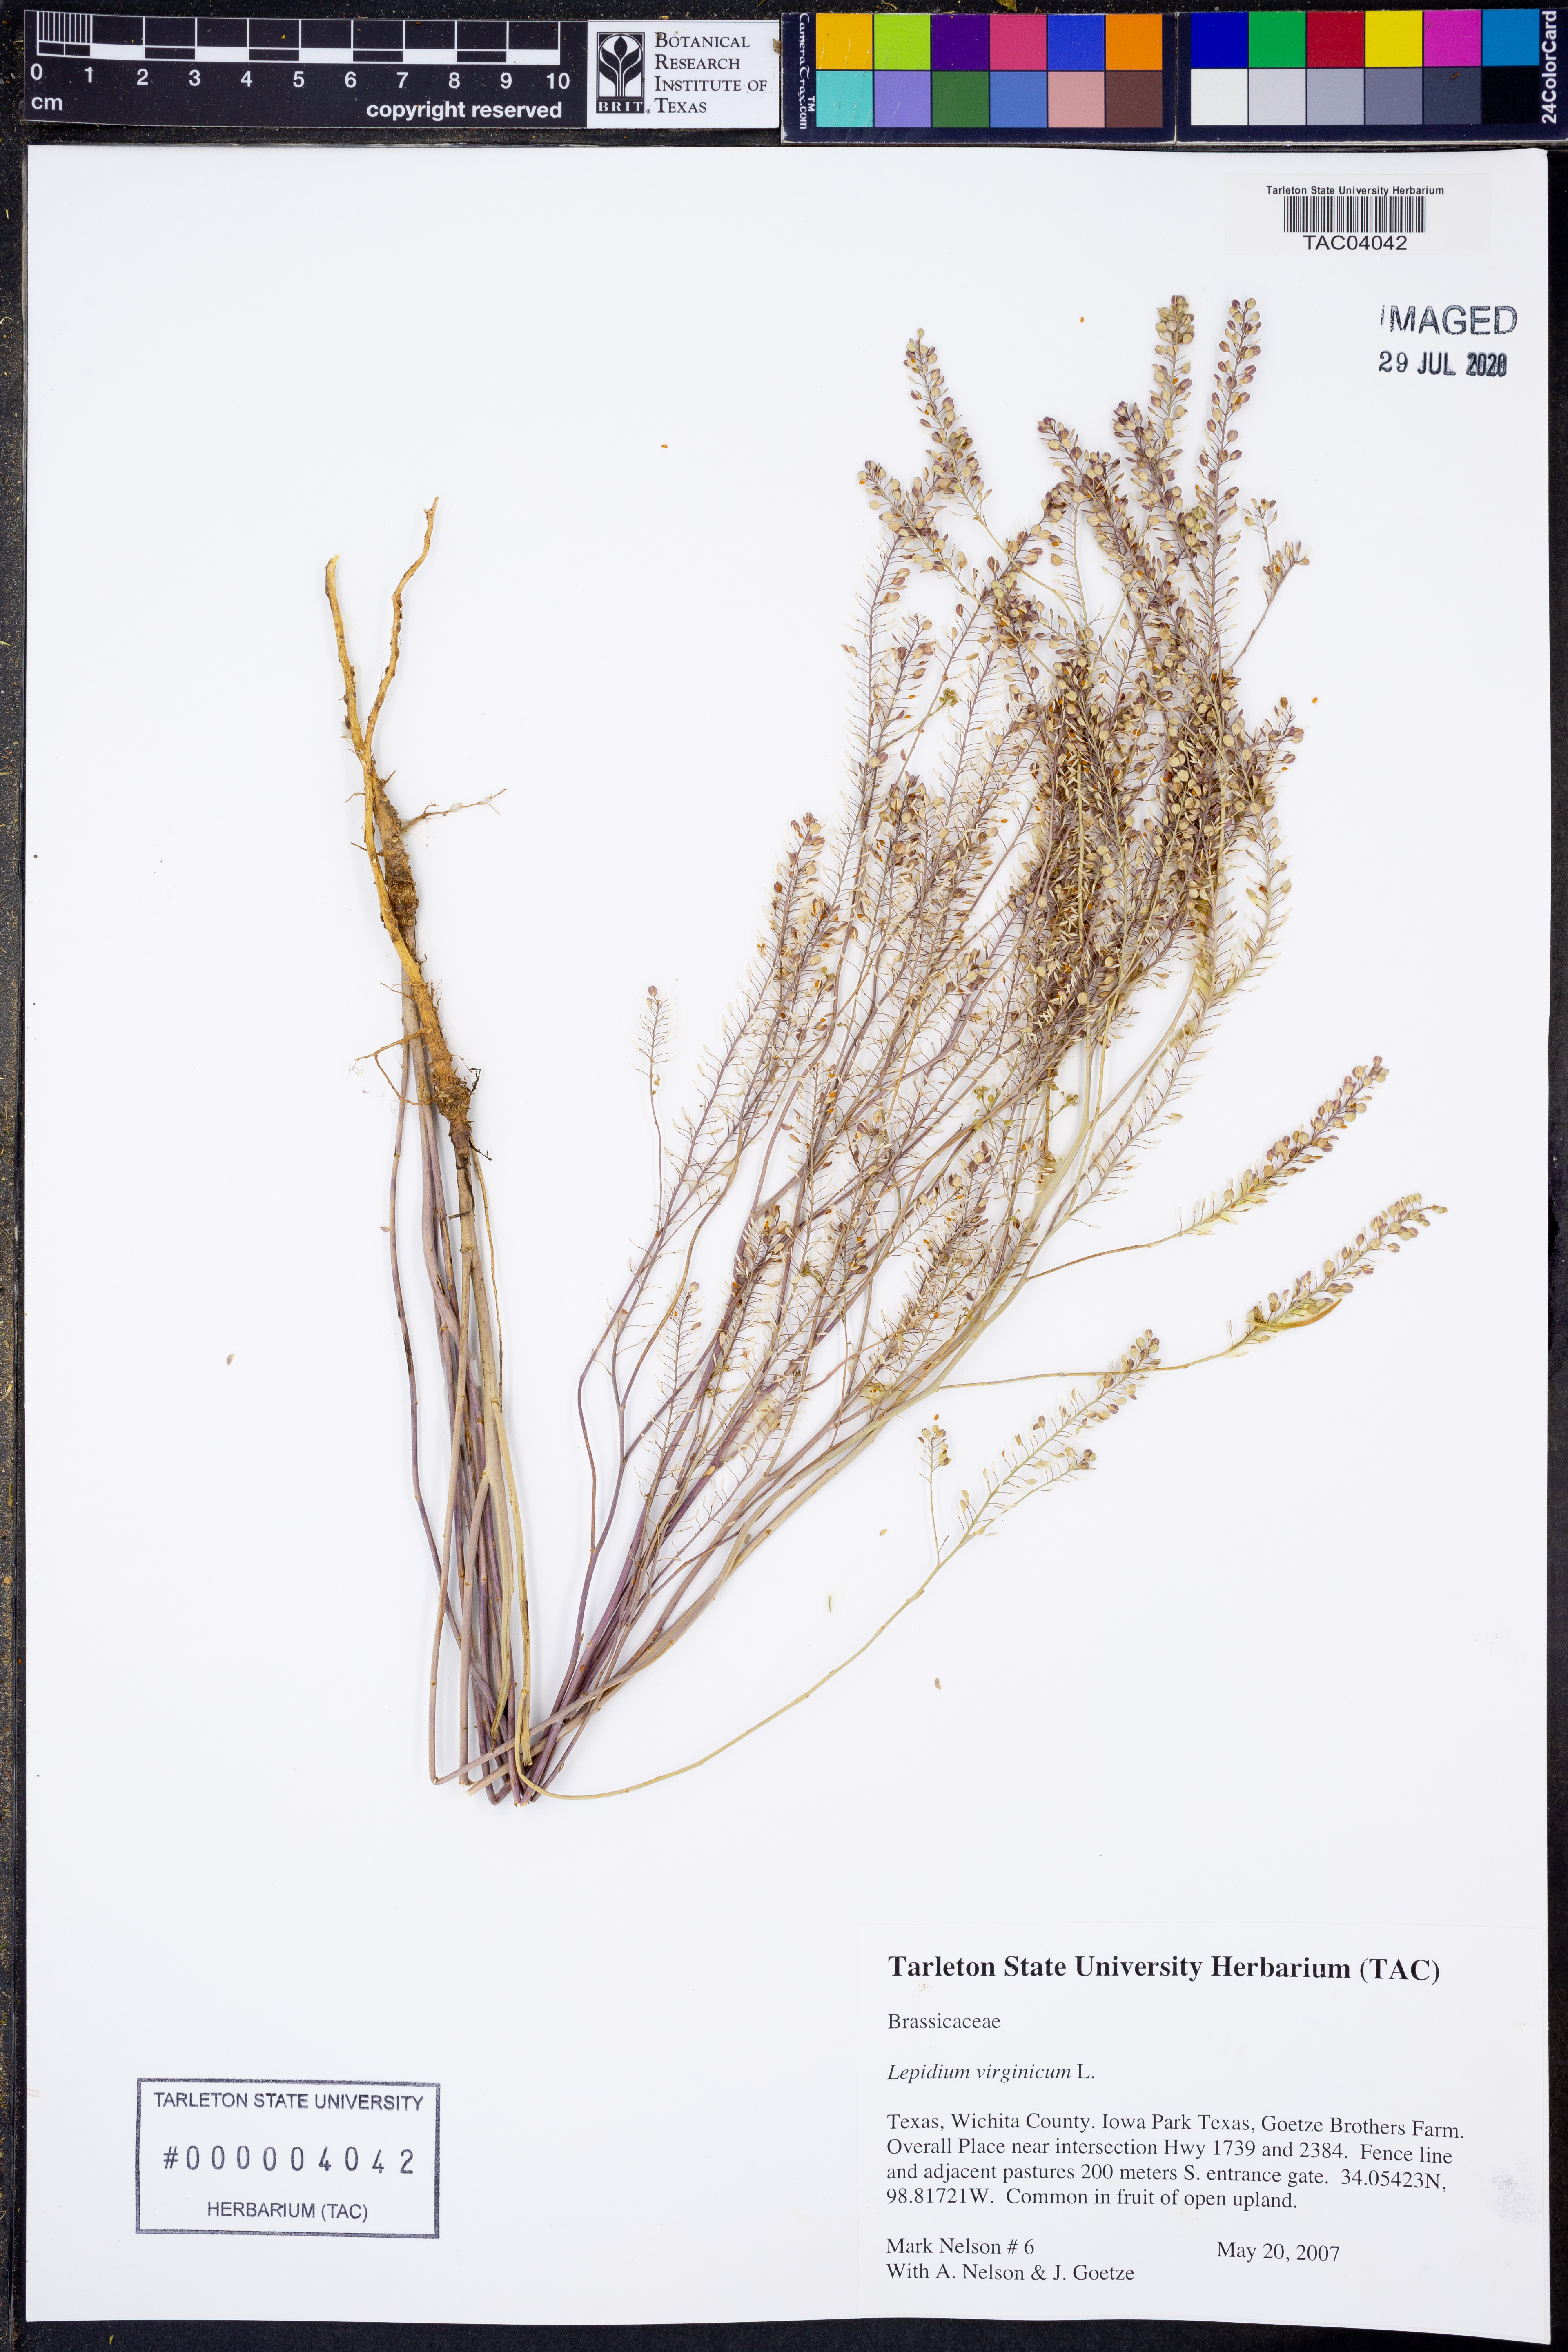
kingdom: Plantae
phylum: Tracheophyta
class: Magnoliopsida
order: Brassicales
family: Brassicaceae
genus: Lepidium
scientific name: Lepidium virginicum
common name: Least pepperwort
